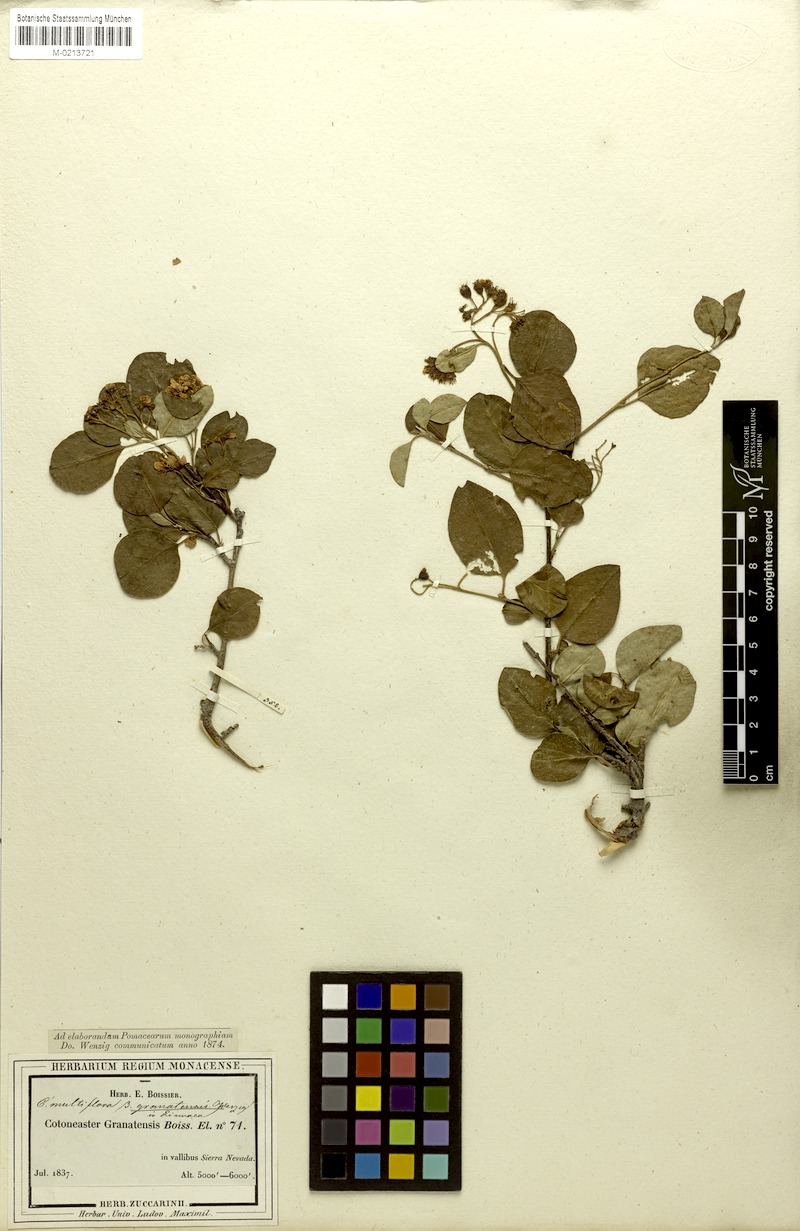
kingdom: Plantae
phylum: Tracheophyta
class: Magnoliopsida
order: Rosales
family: Rosaceae
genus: Cotoneaster
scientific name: Cotoneaster granatensis
